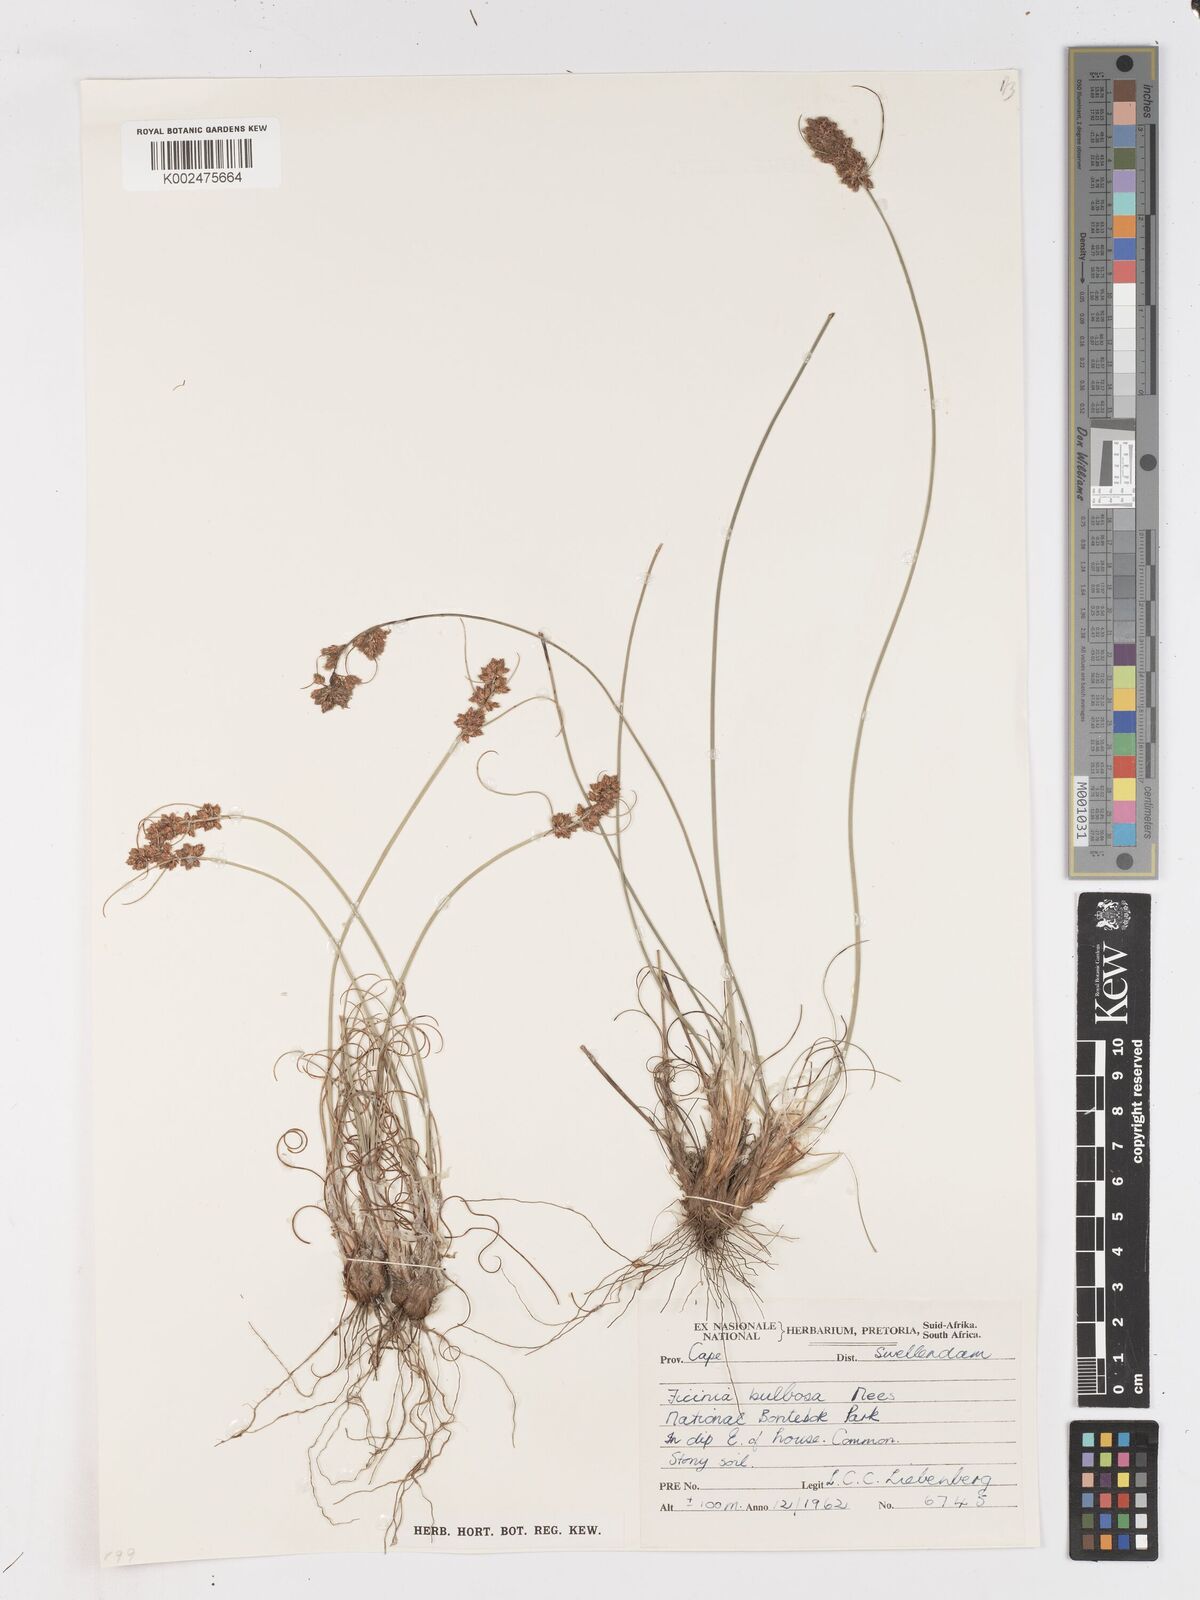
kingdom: Plantae
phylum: Tracheophyta
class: Liliopsida
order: Poales
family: Cyperaceae
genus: Ficinia
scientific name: Ficinia bulbosa
